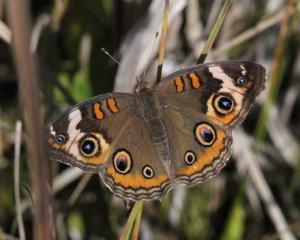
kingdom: Animalia
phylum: Arthropoda
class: Insecta
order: Lepidoptera
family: Nymphalidae
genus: Junonia
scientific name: Junonia coenia
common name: Common Buckeye
